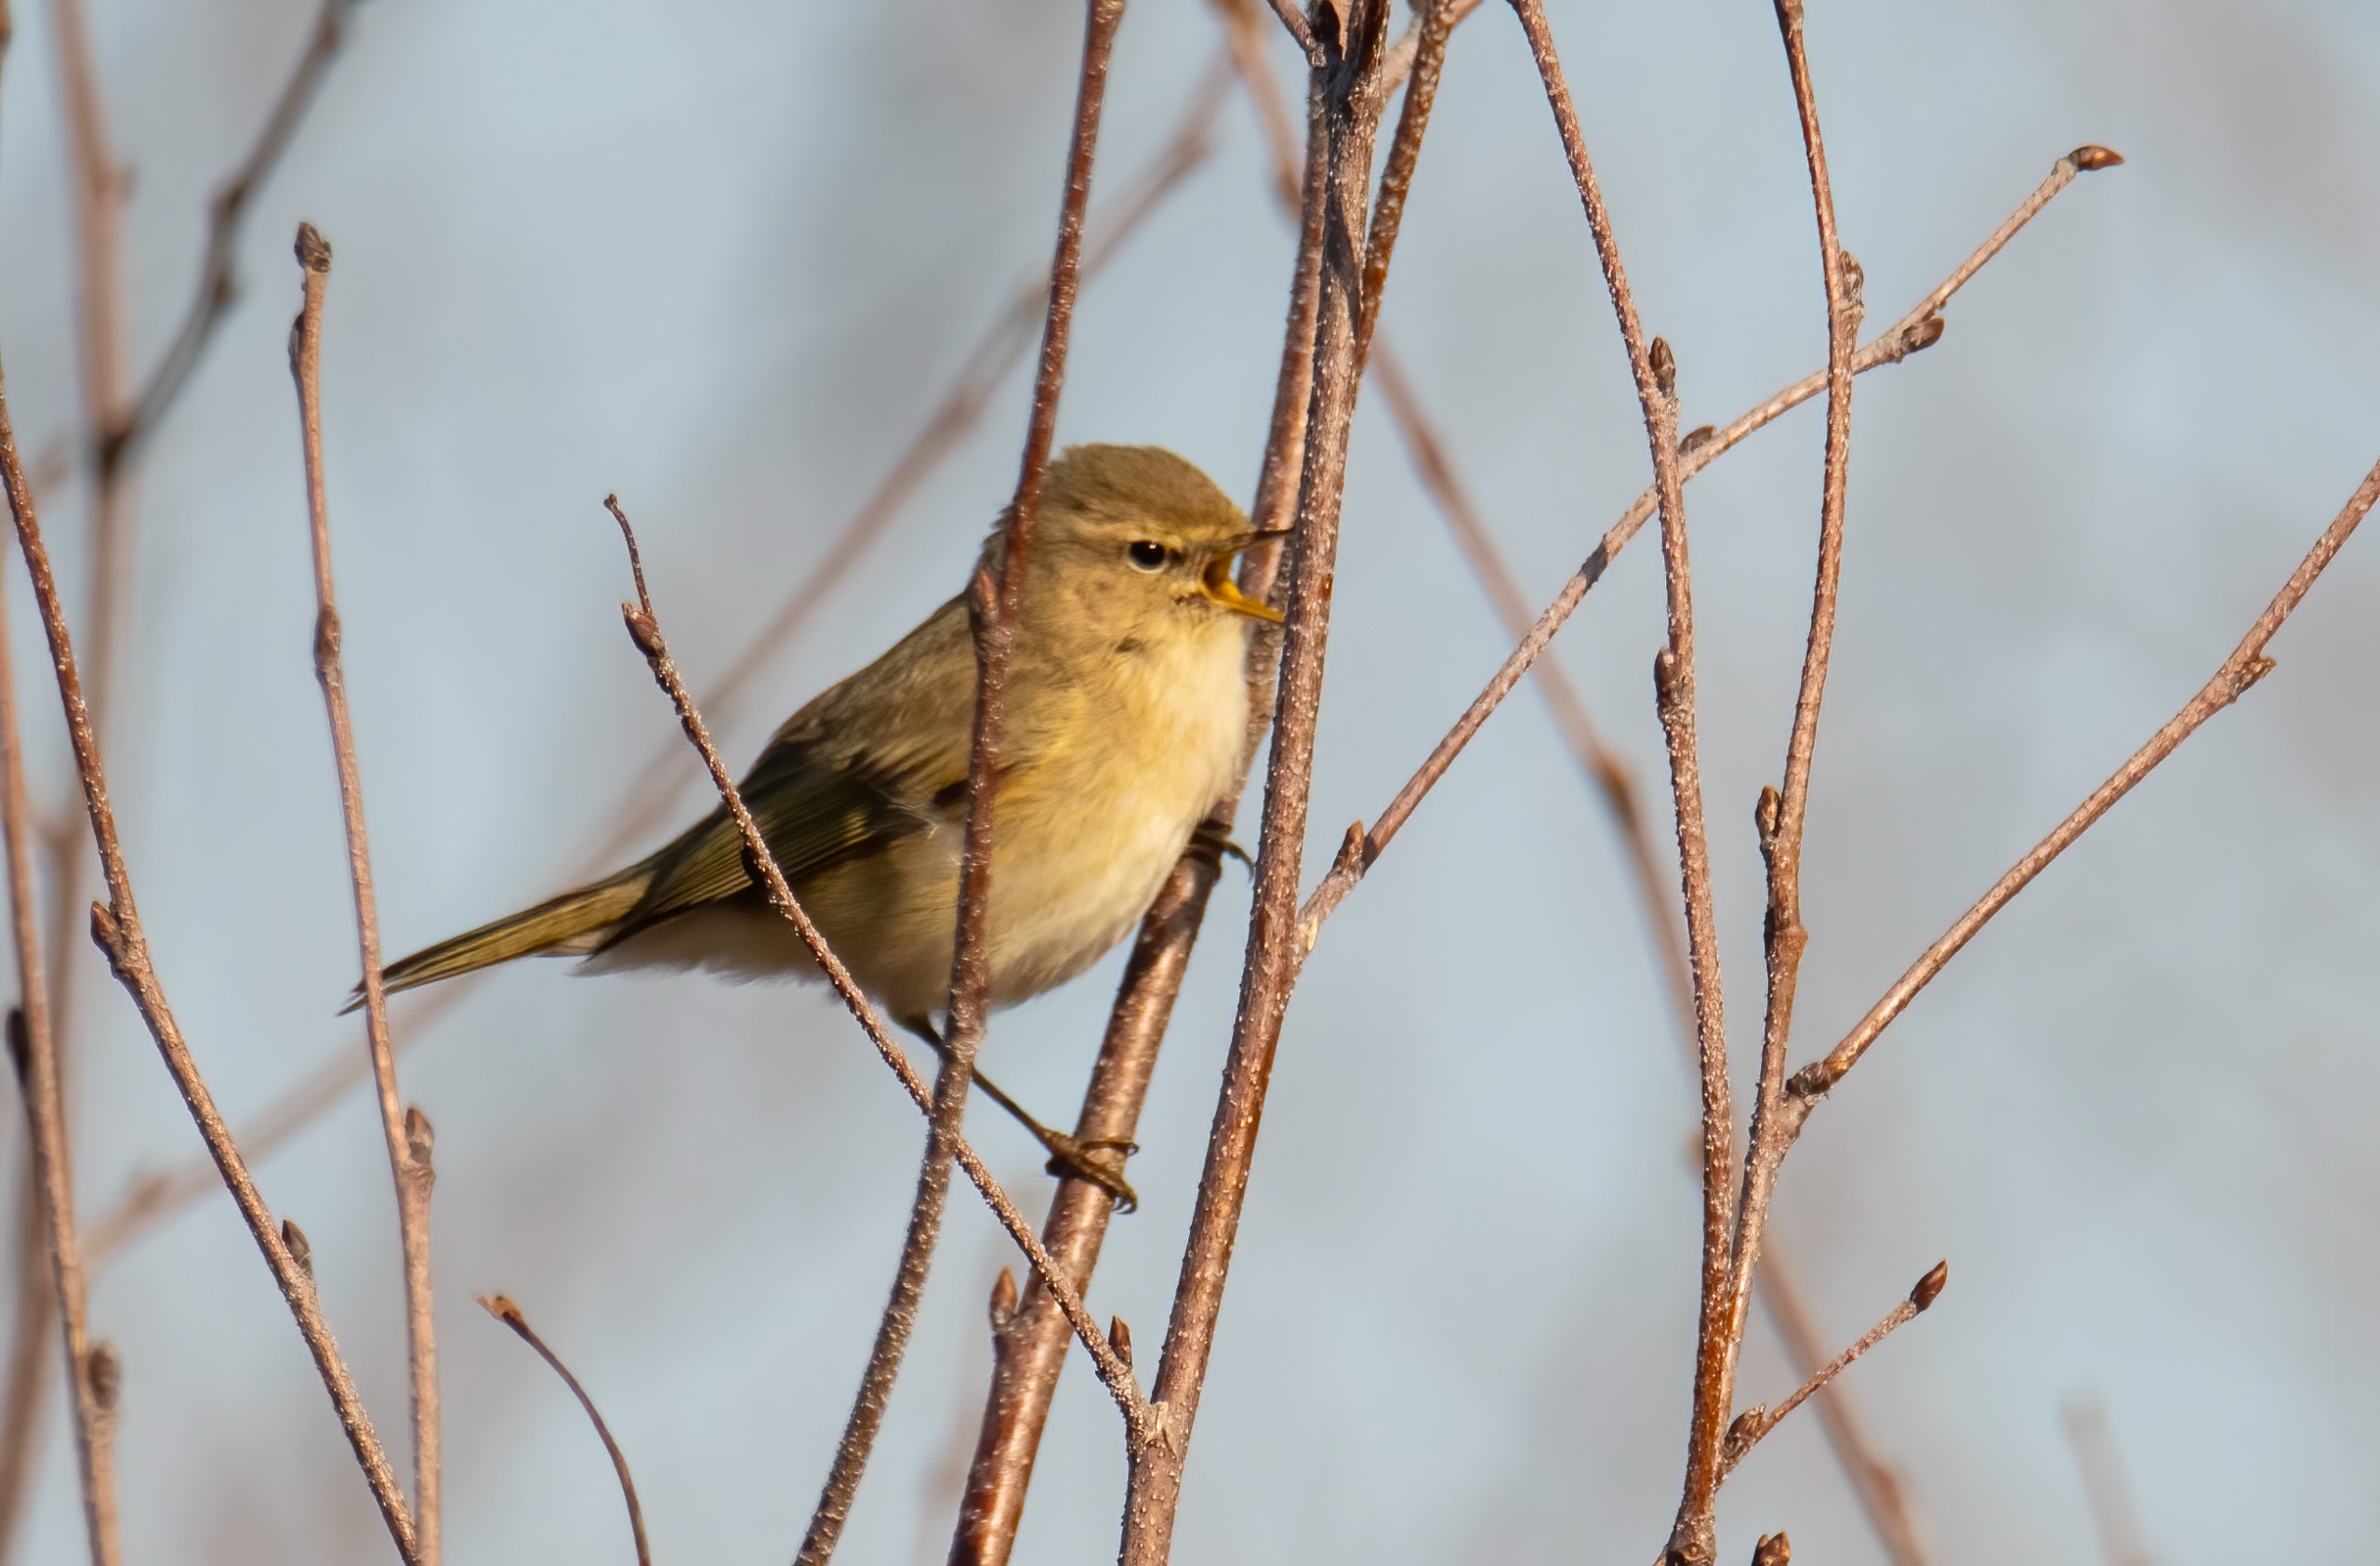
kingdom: Animalia
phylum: Chordata
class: Aves
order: Passeriformes
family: Phylloscopidae
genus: Phylloscopus
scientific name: Phylloscopus collybita
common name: Gransanger
